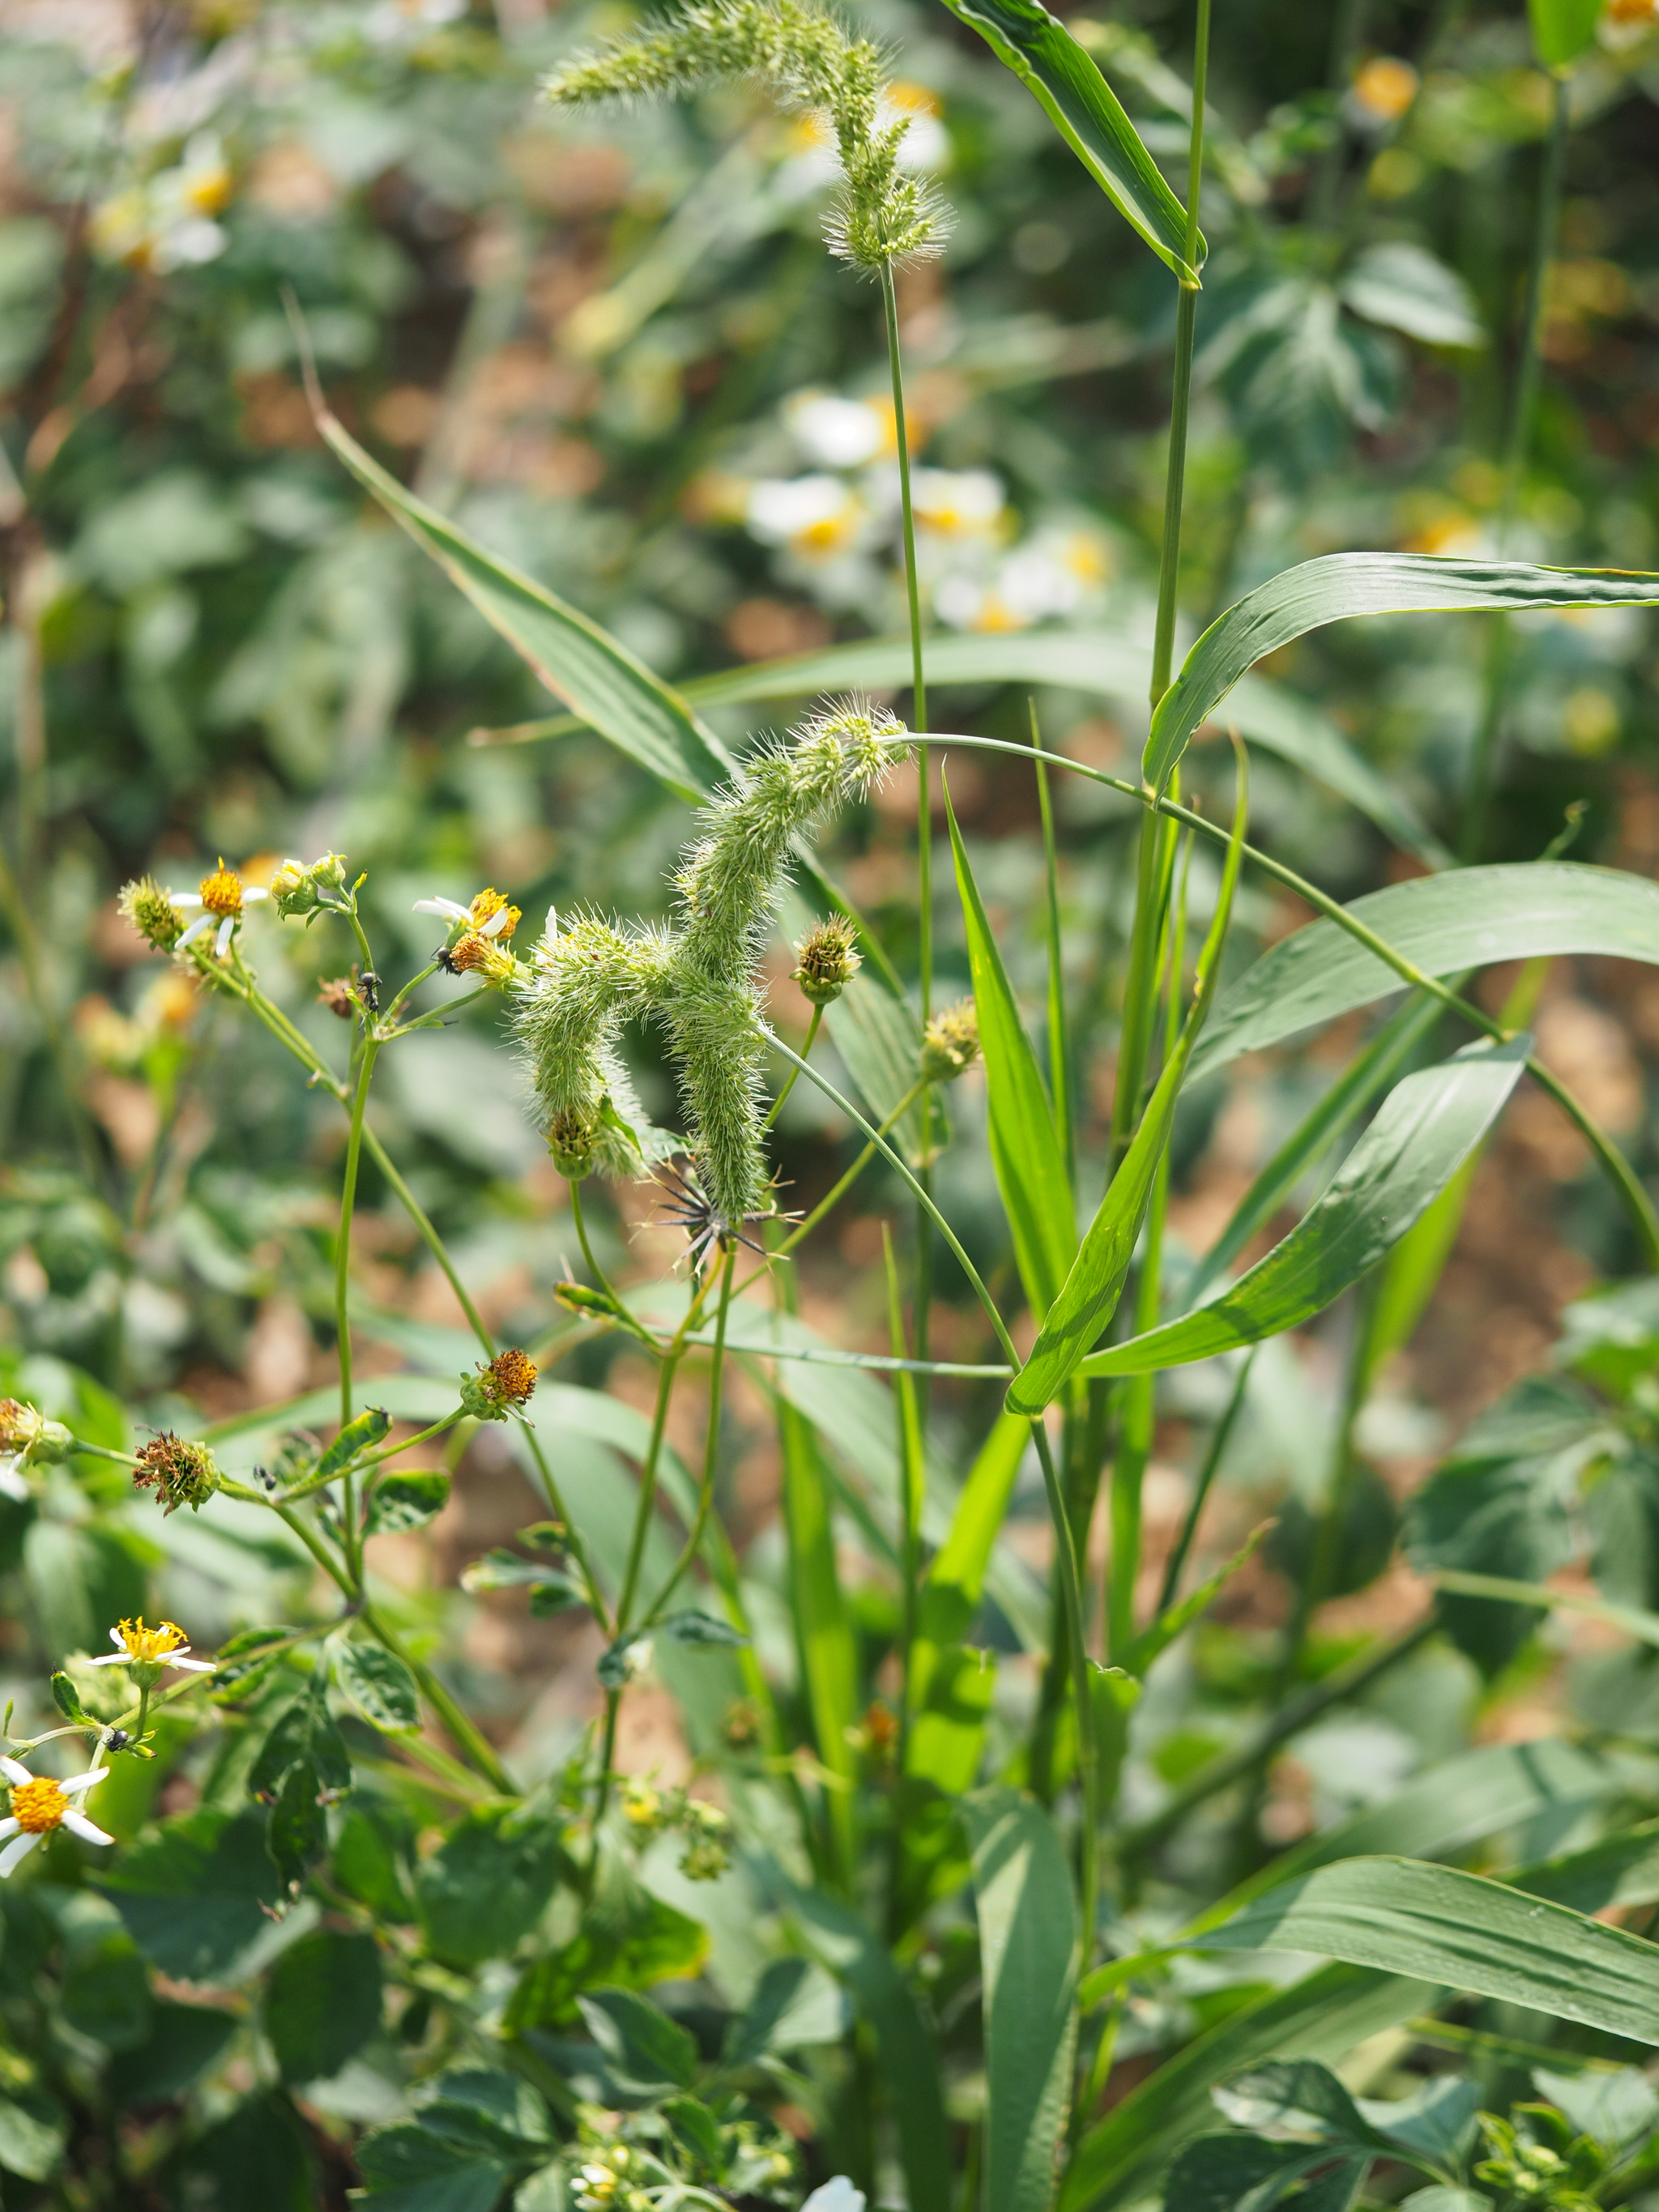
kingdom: Plantae
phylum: Tracheophyta
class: Liliopsida
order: Poales
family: Poaceae
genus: Setaria
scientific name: Setaria verticillata
